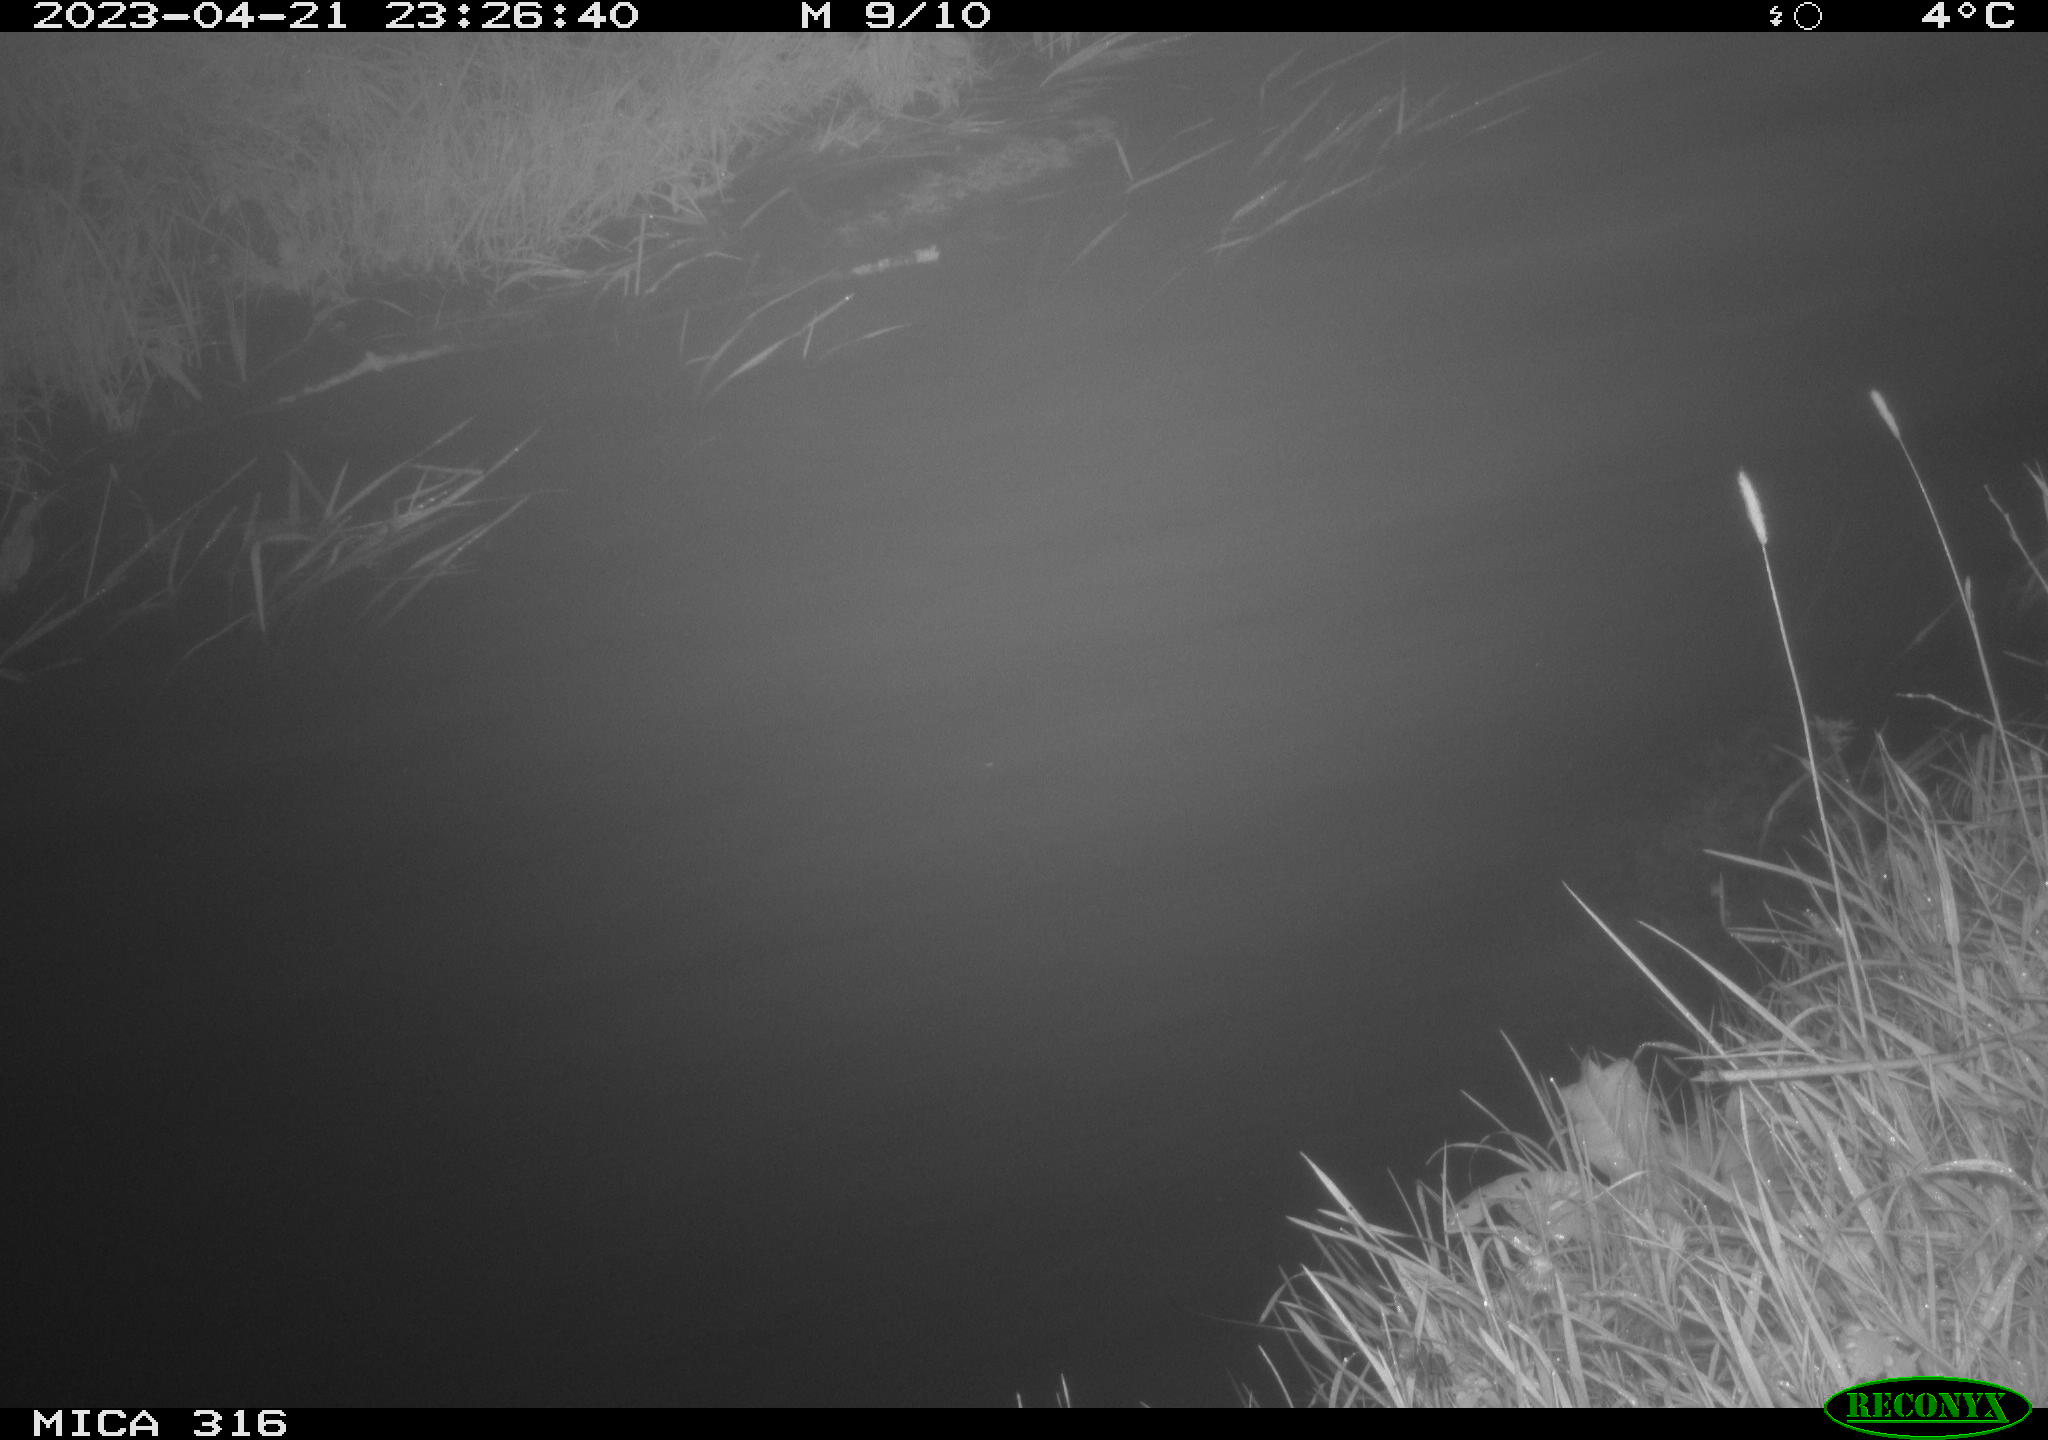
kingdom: Animalia
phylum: Chordata
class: Aves
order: Anseriformes
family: Anatidae
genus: Anas
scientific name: Anas
